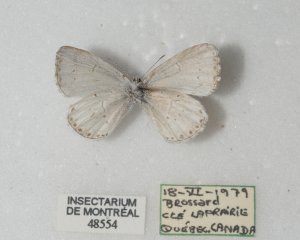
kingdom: Animalia
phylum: Arthropoda
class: Insecta
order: Lepidoptera
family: Lycaenidae
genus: Cyaniris
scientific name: Cyaniris neglecta
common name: Summer Azure
